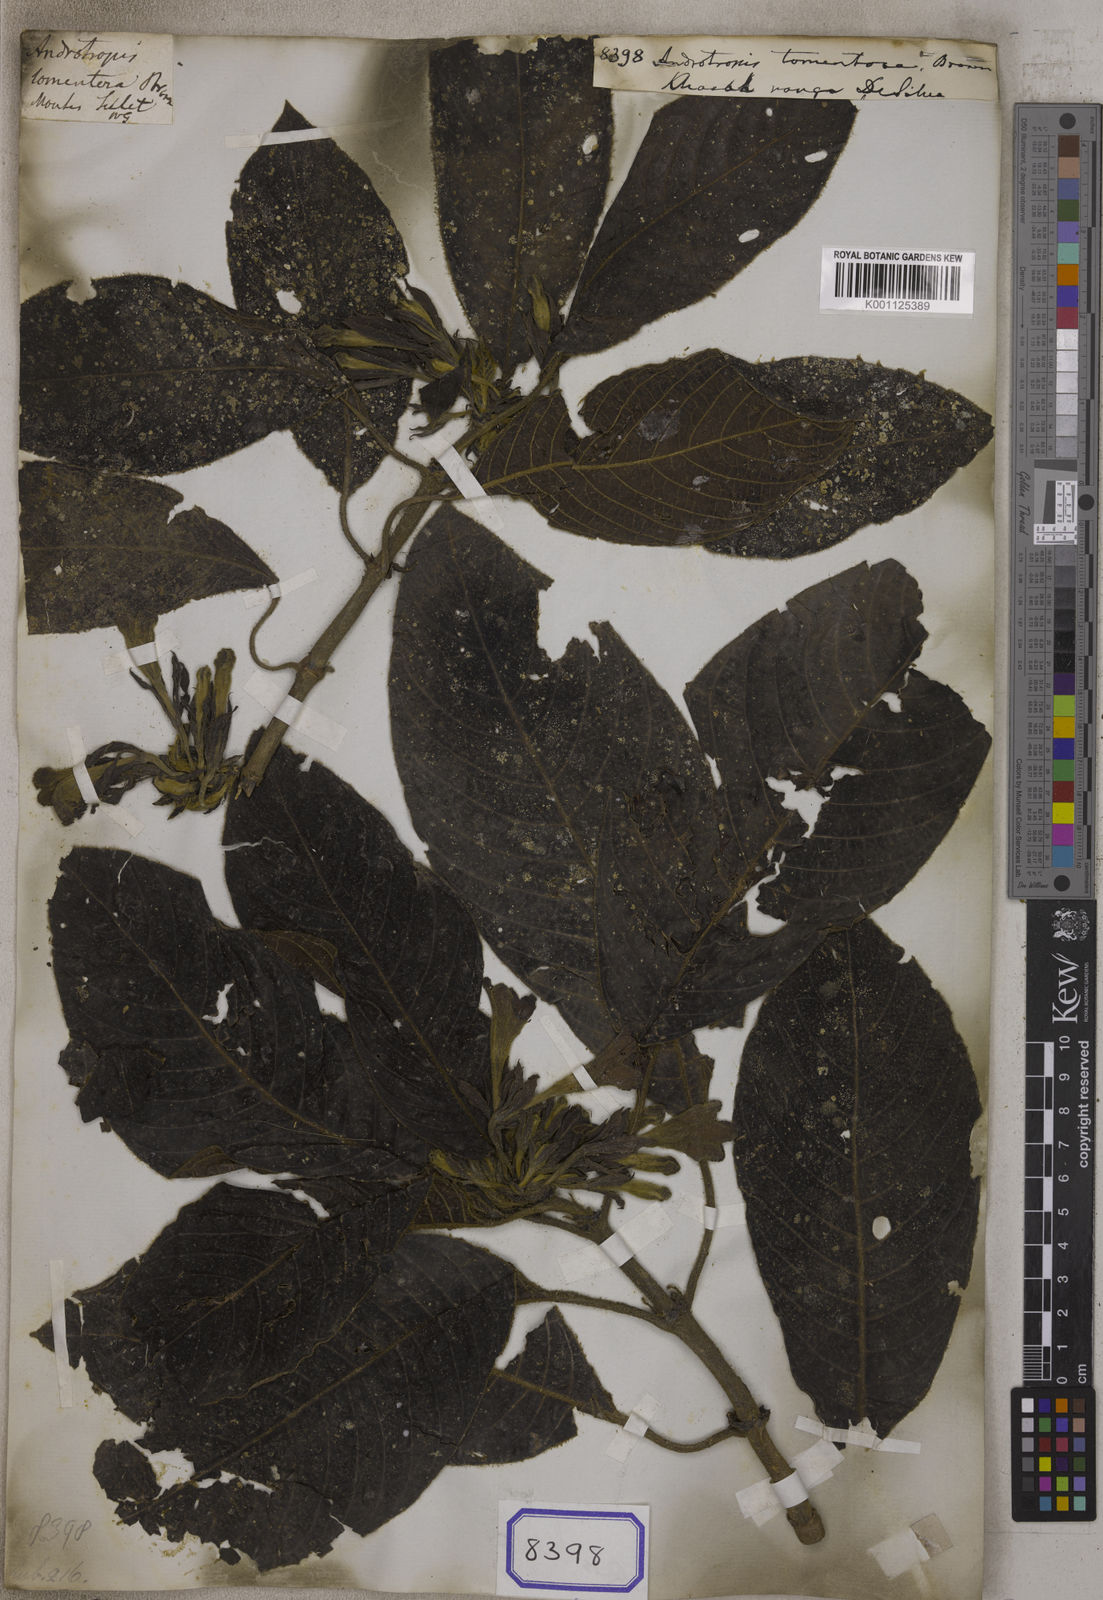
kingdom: Plantae
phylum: Tracheophyta
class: Magnoliopsida
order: Gentianales
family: Rubiaceae
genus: Acranthera
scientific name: Acranthera
